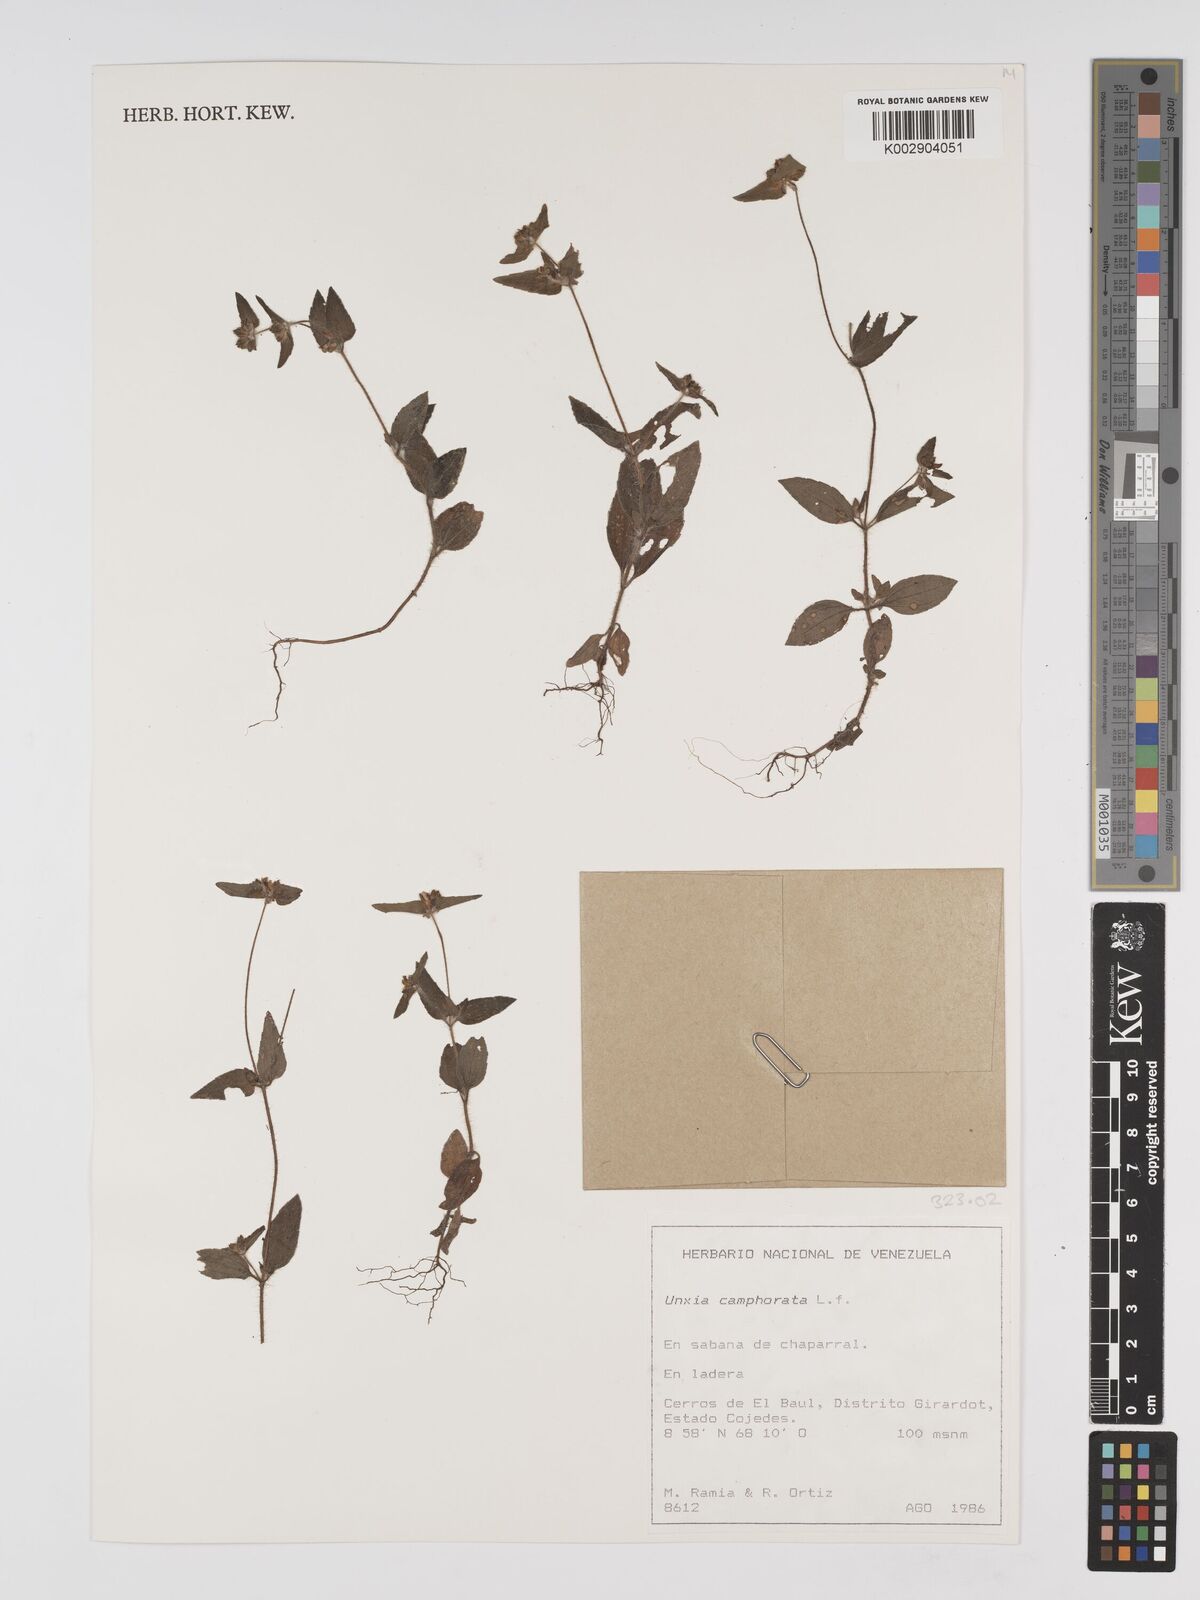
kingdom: Plantae
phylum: Tracheophyta
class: Magnoliopsida
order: Asterales
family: Asteraceae
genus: Unxia
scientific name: Unxia camphorata
